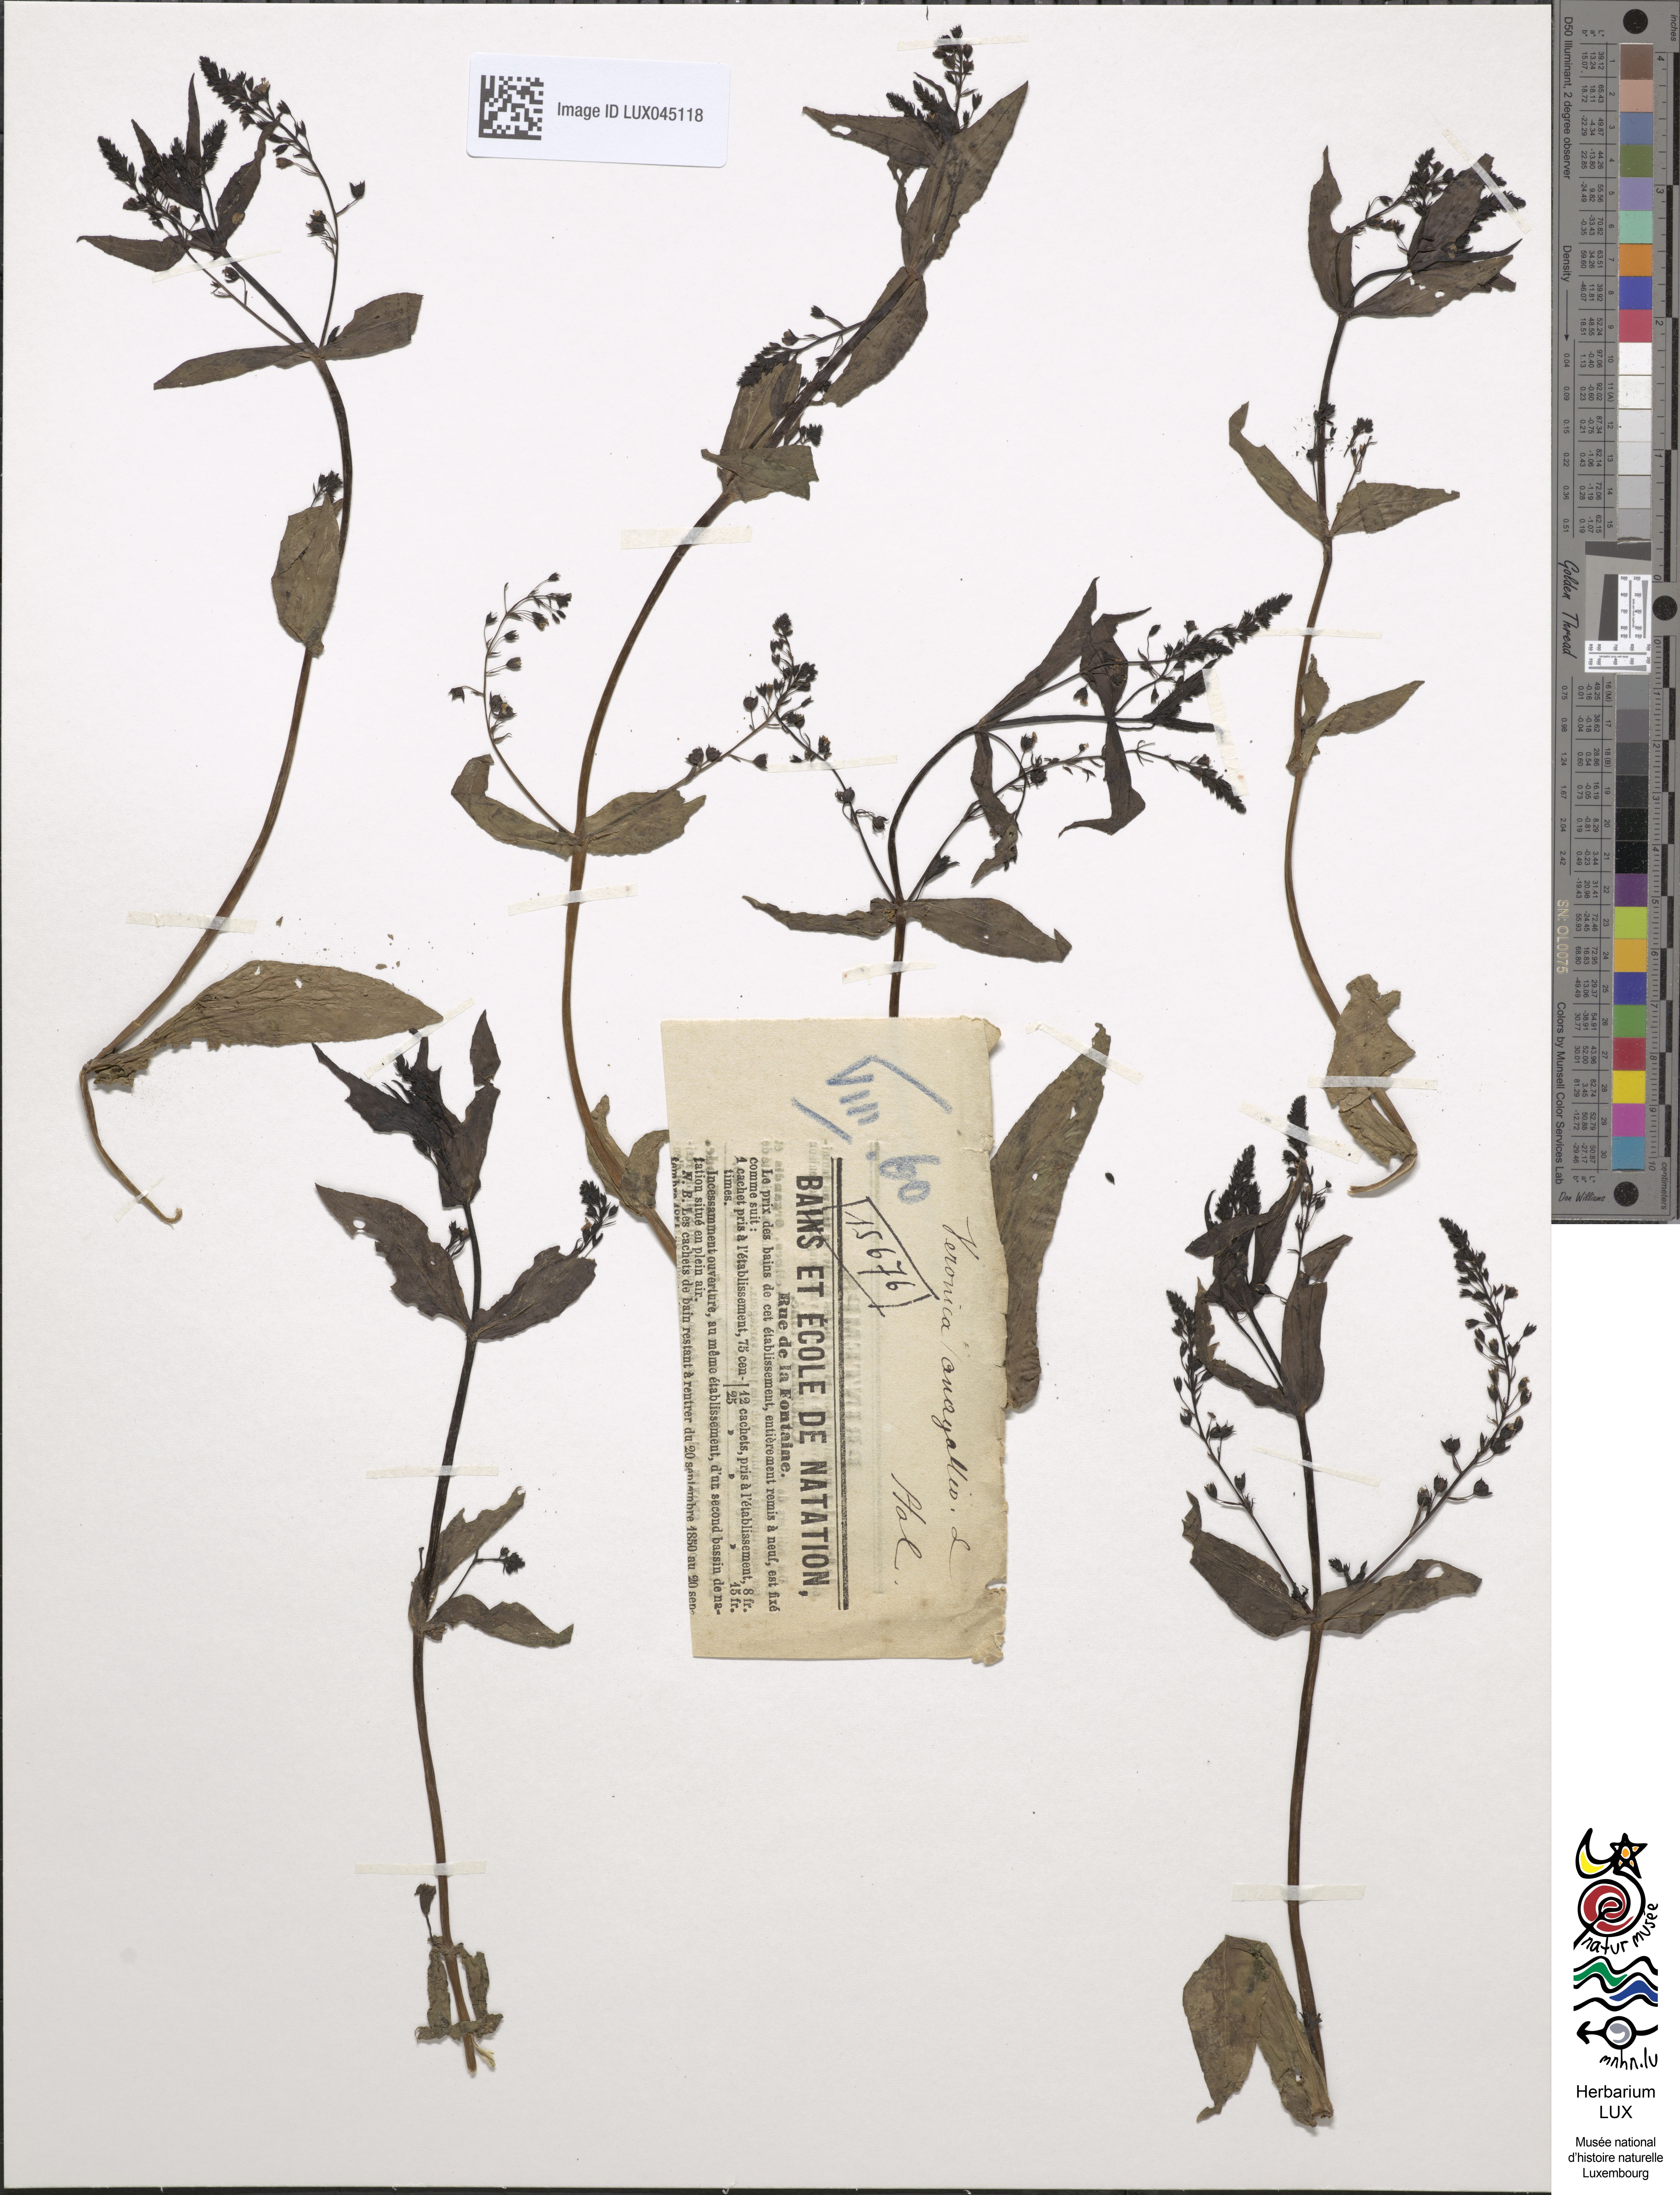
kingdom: Plantae
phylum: Tracheophyta
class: Magnoliopsida
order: Lamiales
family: Plantaginaceae
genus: Veronica
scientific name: Veronica anagallis-aquatica
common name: Water speedwell
